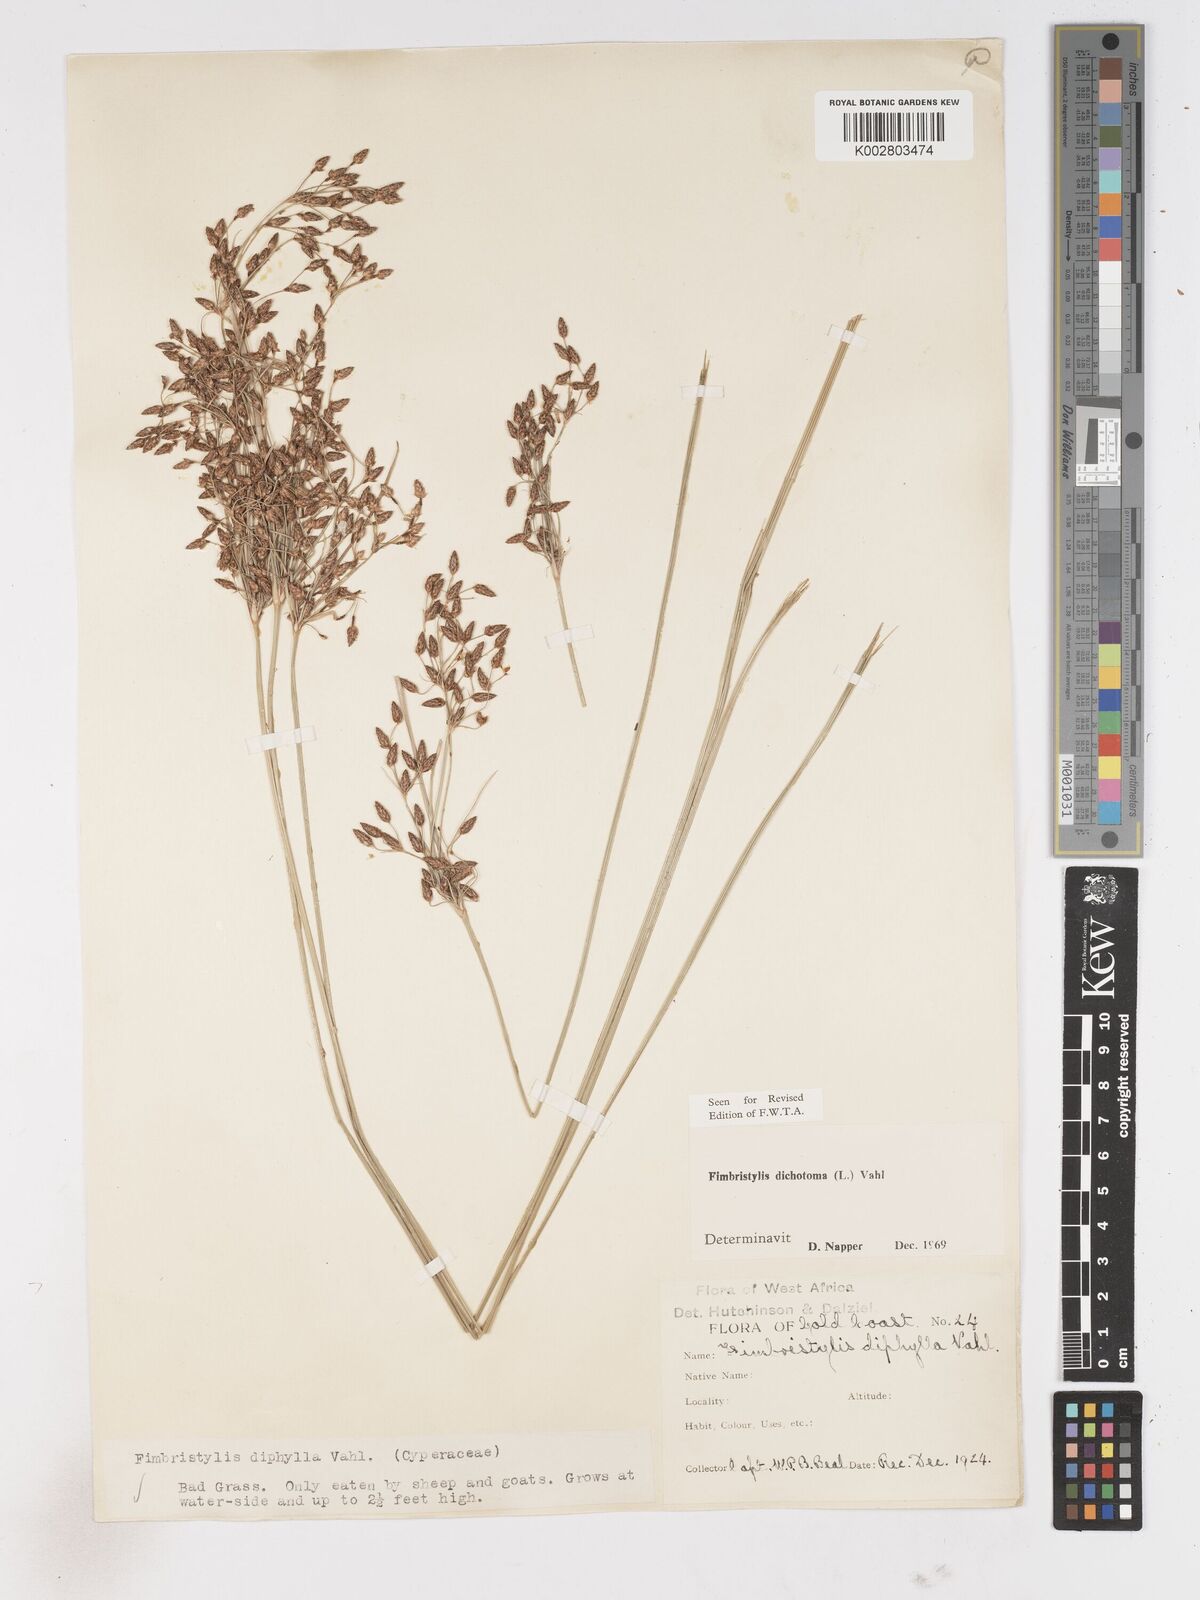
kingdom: Plantae
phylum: Tracheophyta
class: Liliopsida
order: Poales
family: Cyperaceae
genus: Fimbristylis
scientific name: Fimbristylis dichotoma
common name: Forked fimbry
